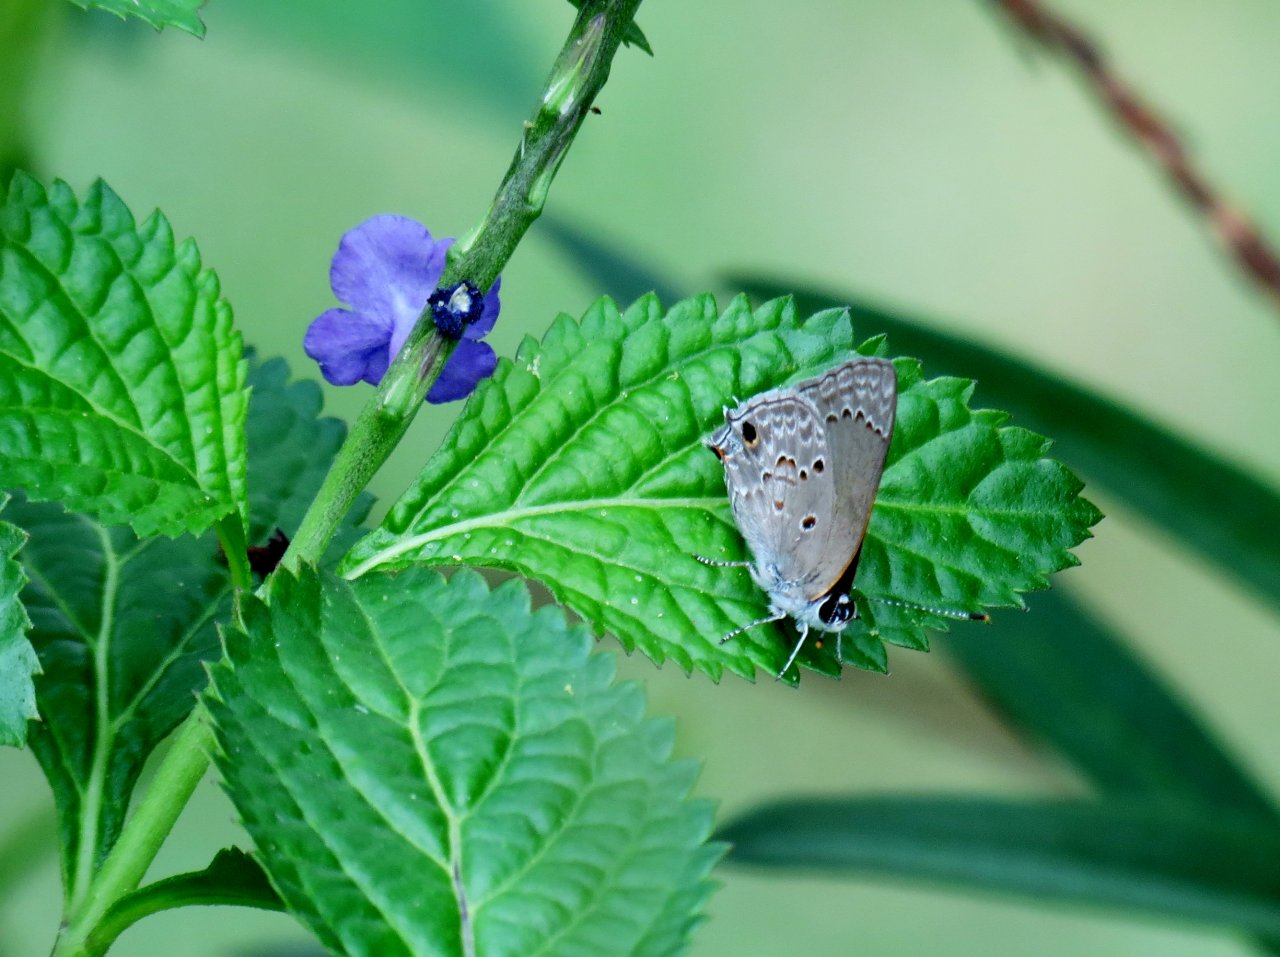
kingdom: Animalia
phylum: Arthropoda
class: Insecta
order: Lepidoptera
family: Lycaenidae
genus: Callicista
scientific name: Callicista columella
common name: Mallow Scrub-Hairstreak
